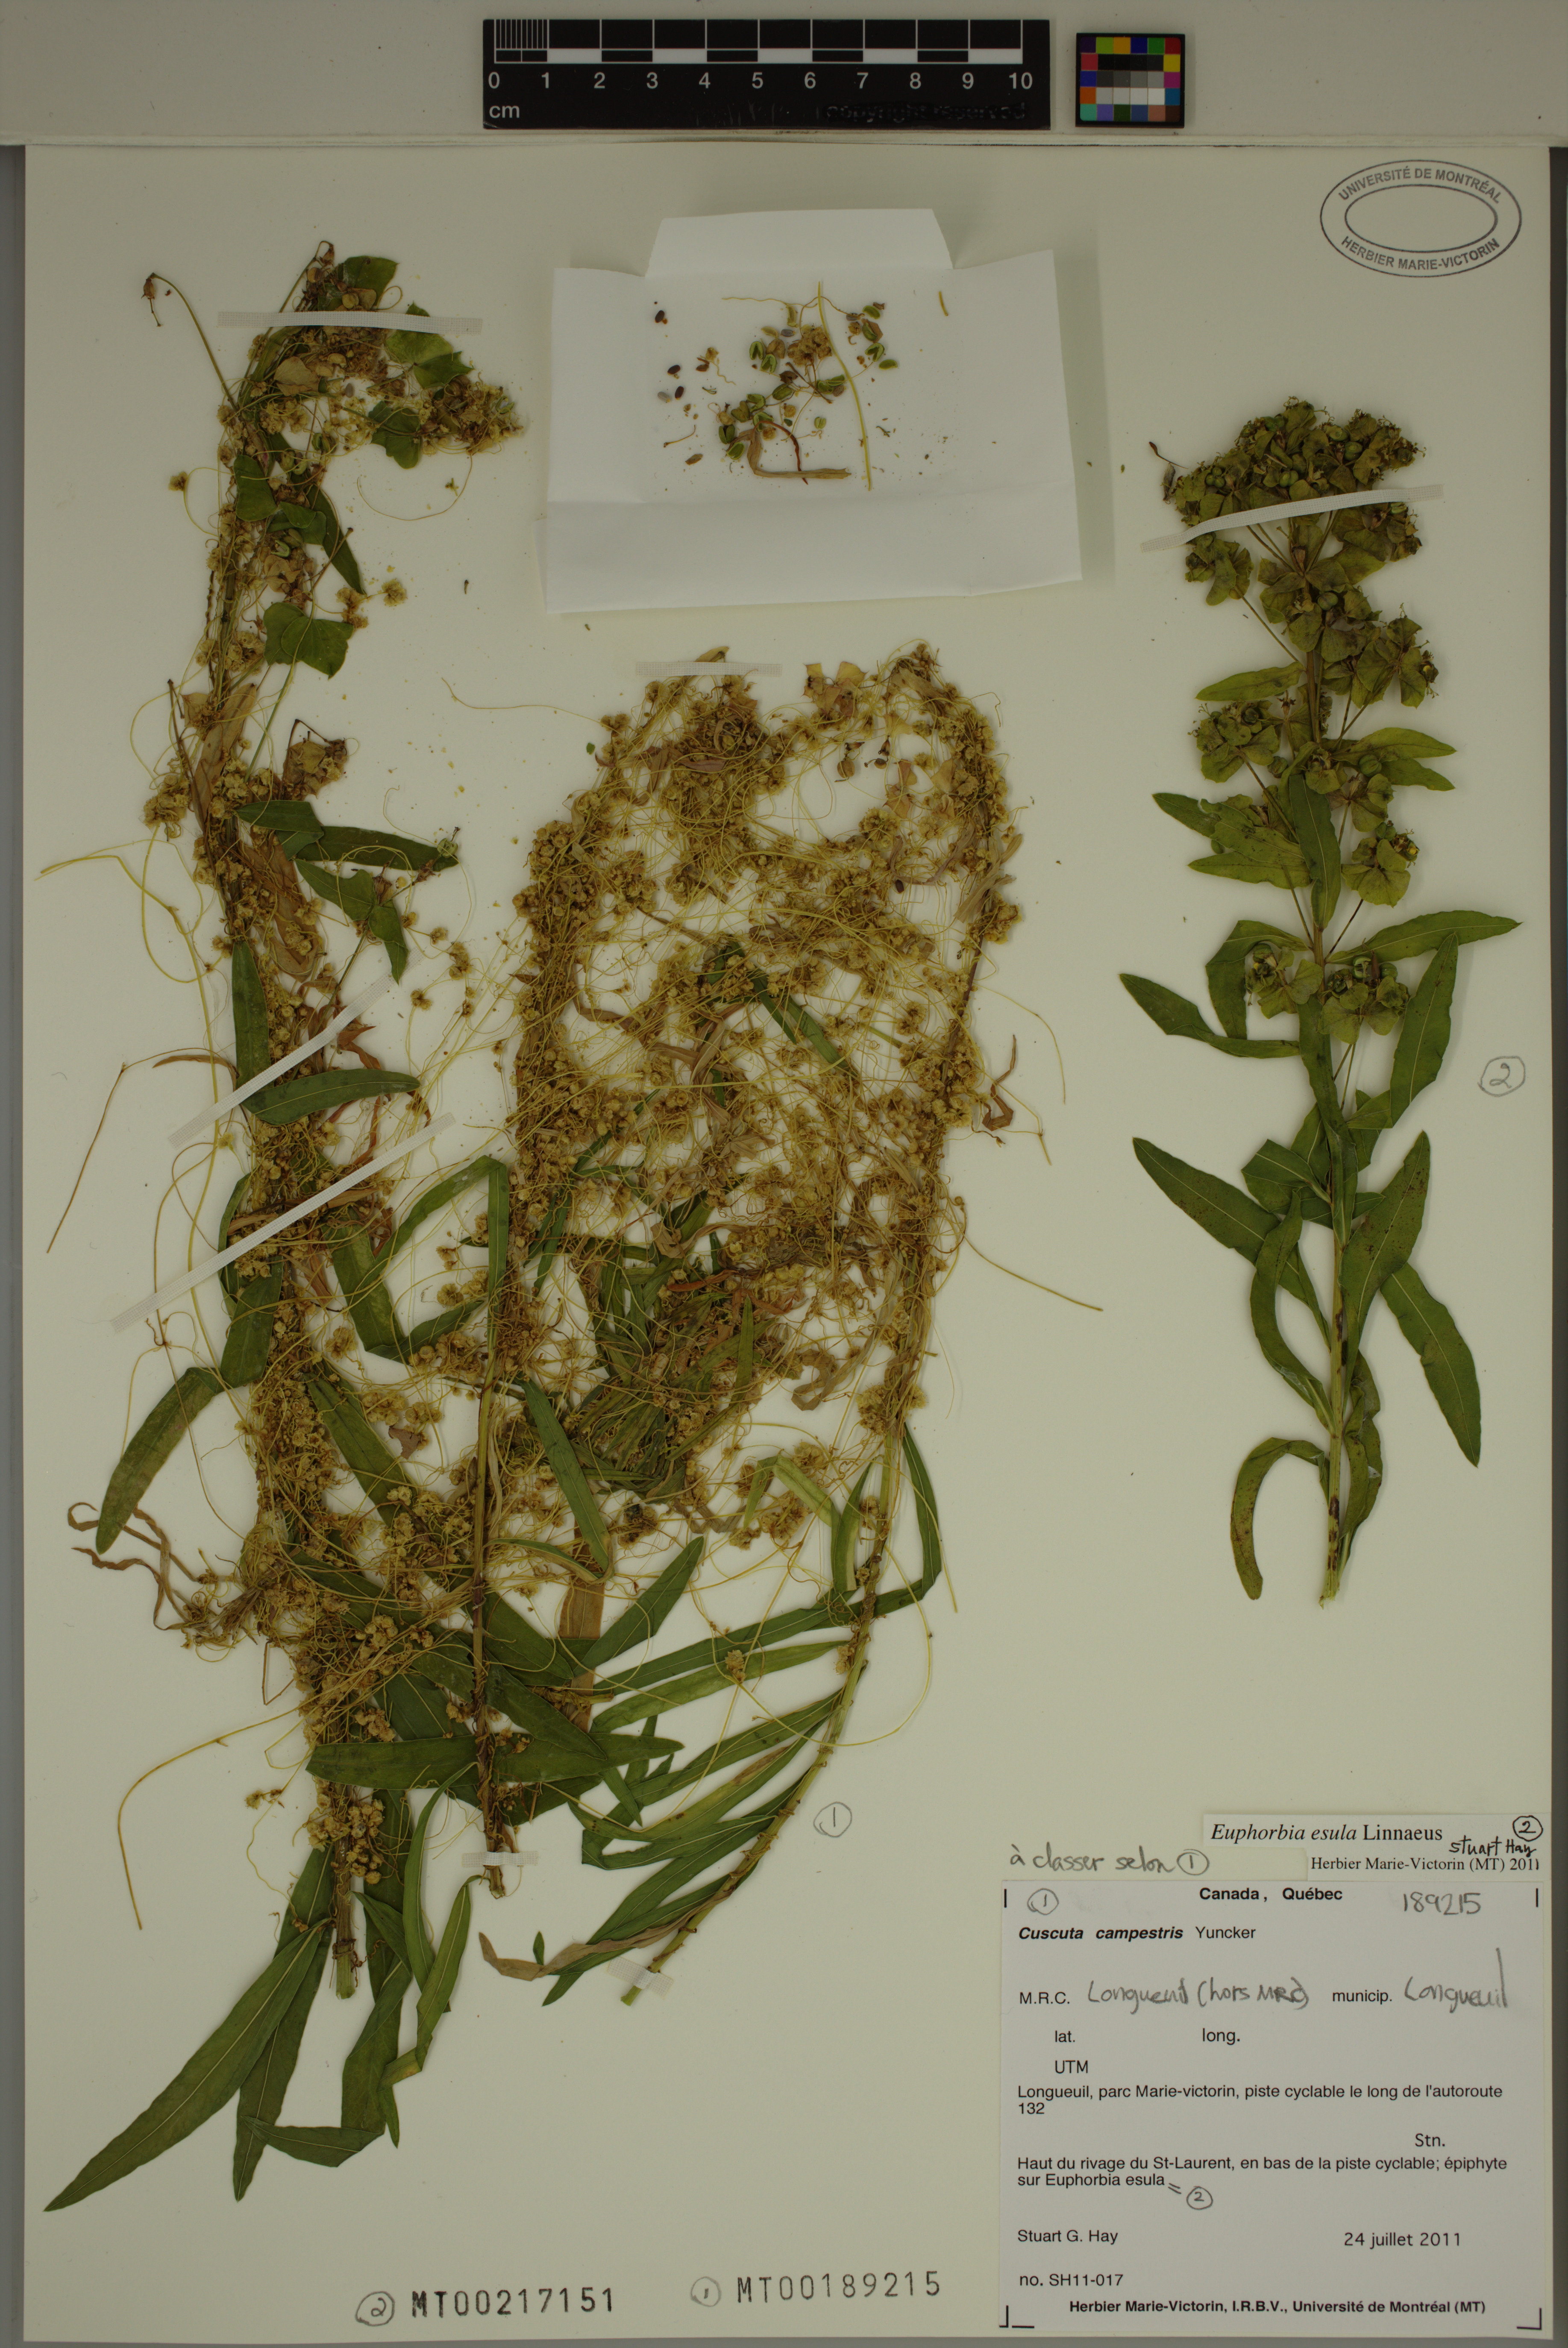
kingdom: Plantae
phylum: Tracheophyta
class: Magnoliopsida
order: Solanales
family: Convolvulaceae
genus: Cuscuta
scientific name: Cuscuta campestris
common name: Yellow dodder
